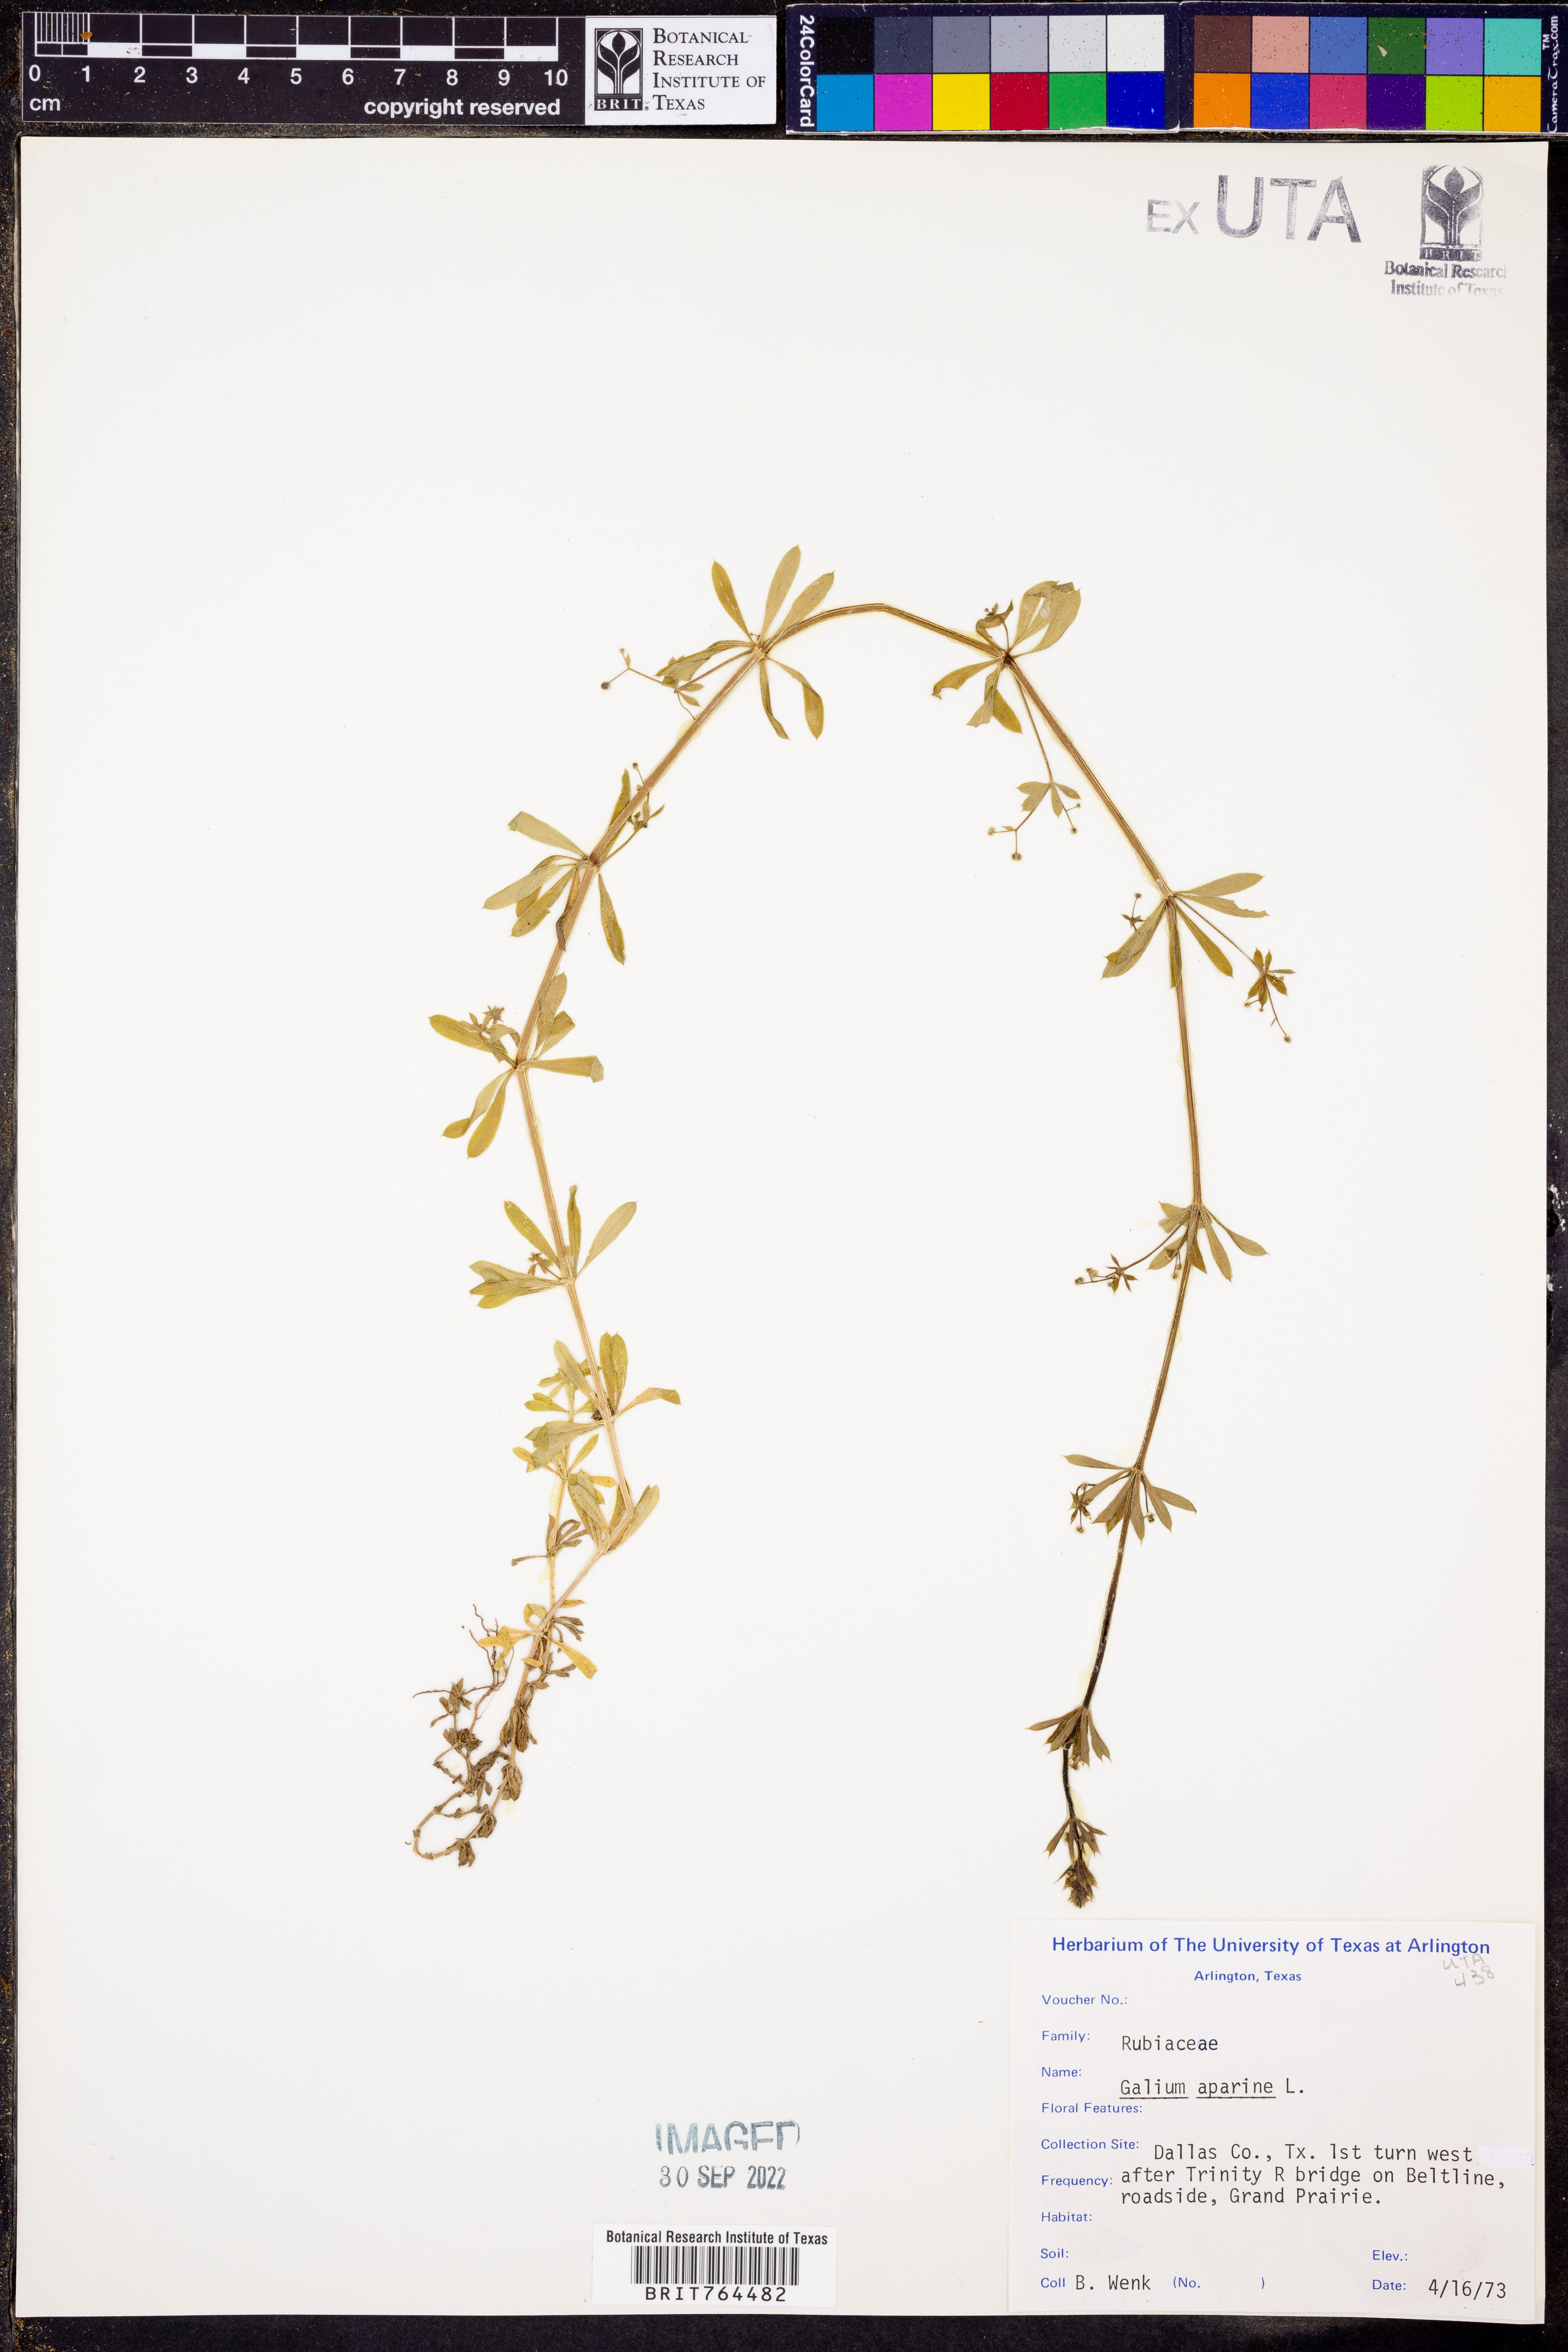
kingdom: Plantae
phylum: Tracheophyta
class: Magnoliopsida
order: Gentianales
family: Rubiaceae
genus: Galium
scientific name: Galium aparine
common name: Cleavers
